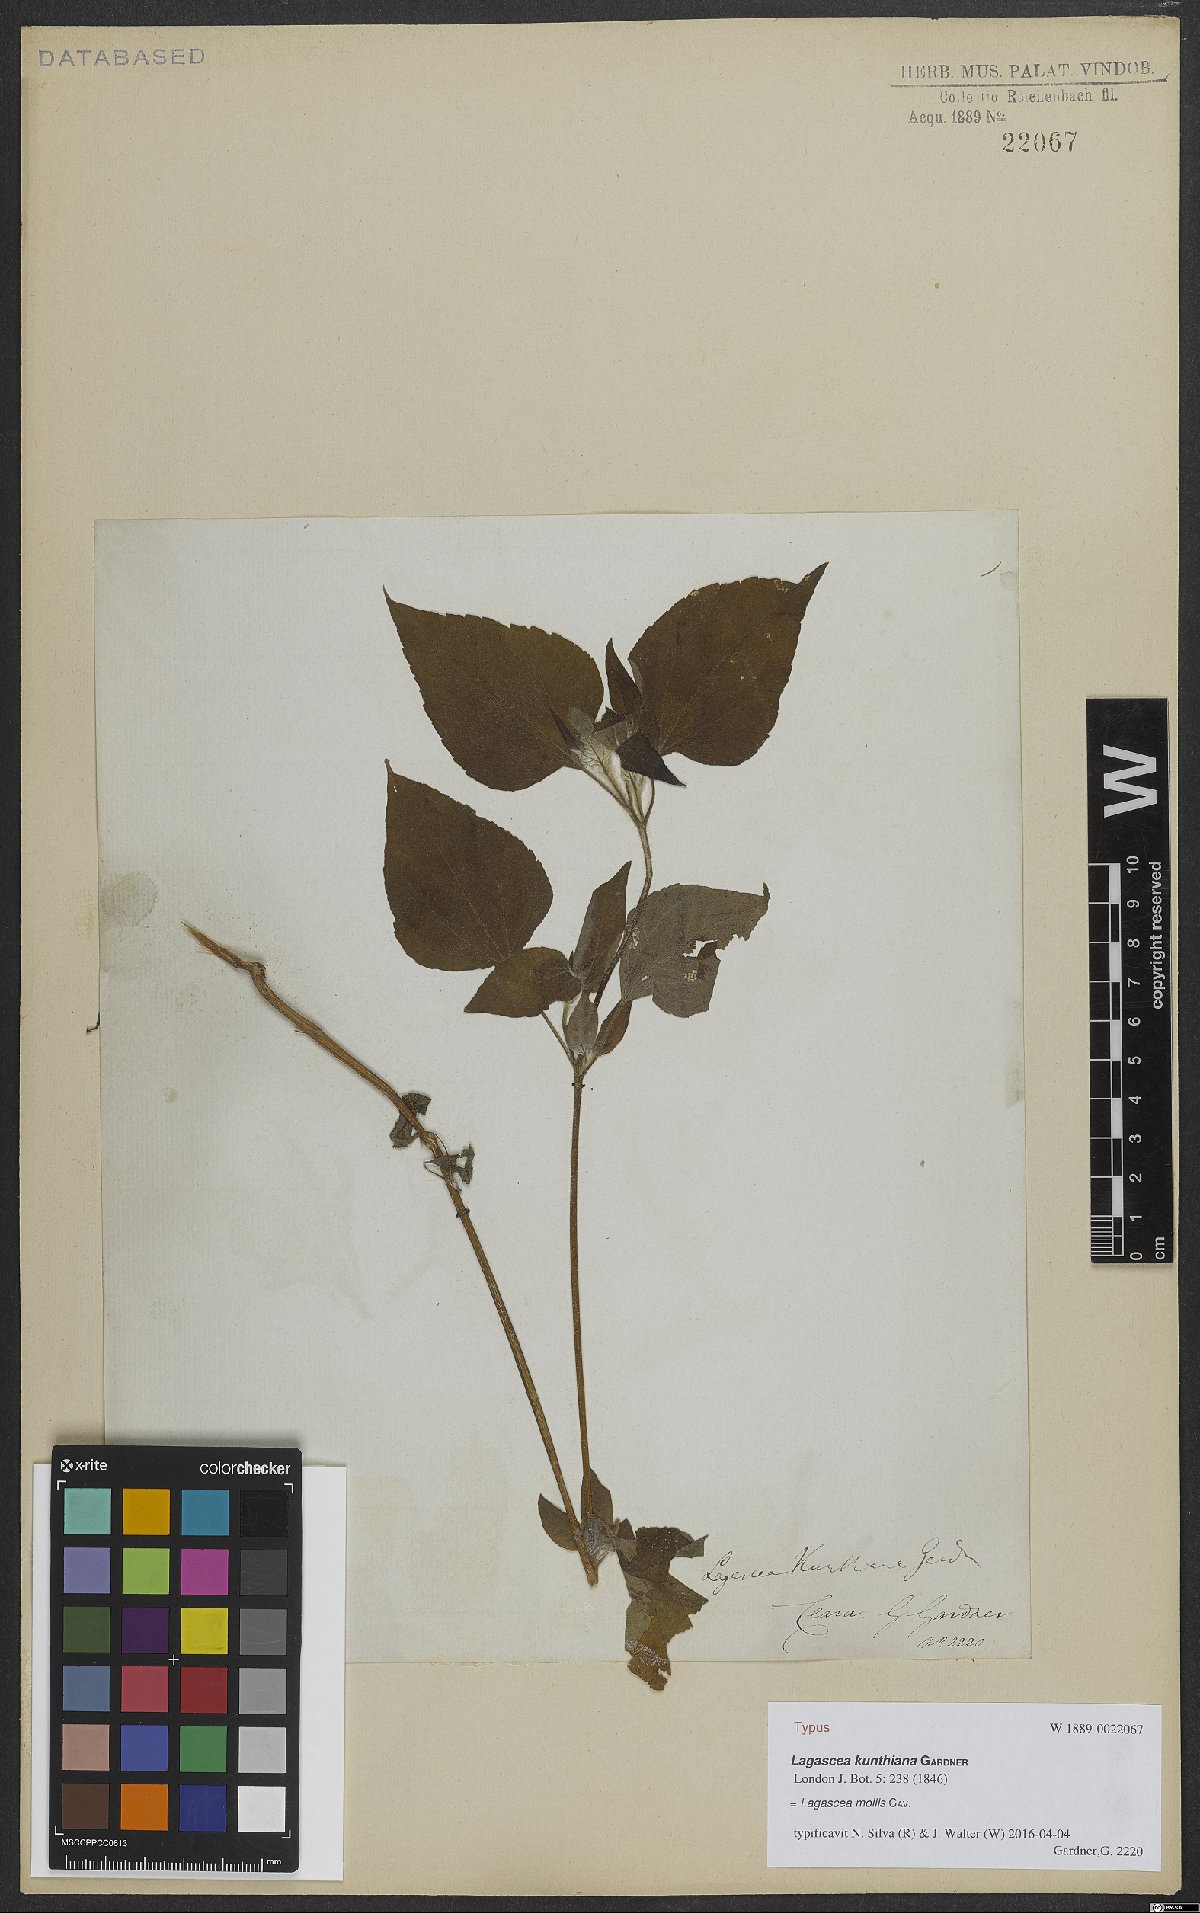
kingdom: Plantae
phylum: Tracheophyta
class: Magnoliopsida
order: Asterales
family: Asteraceae
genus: Lagascea
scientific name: Lagascea mollis
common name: Silkleaf
